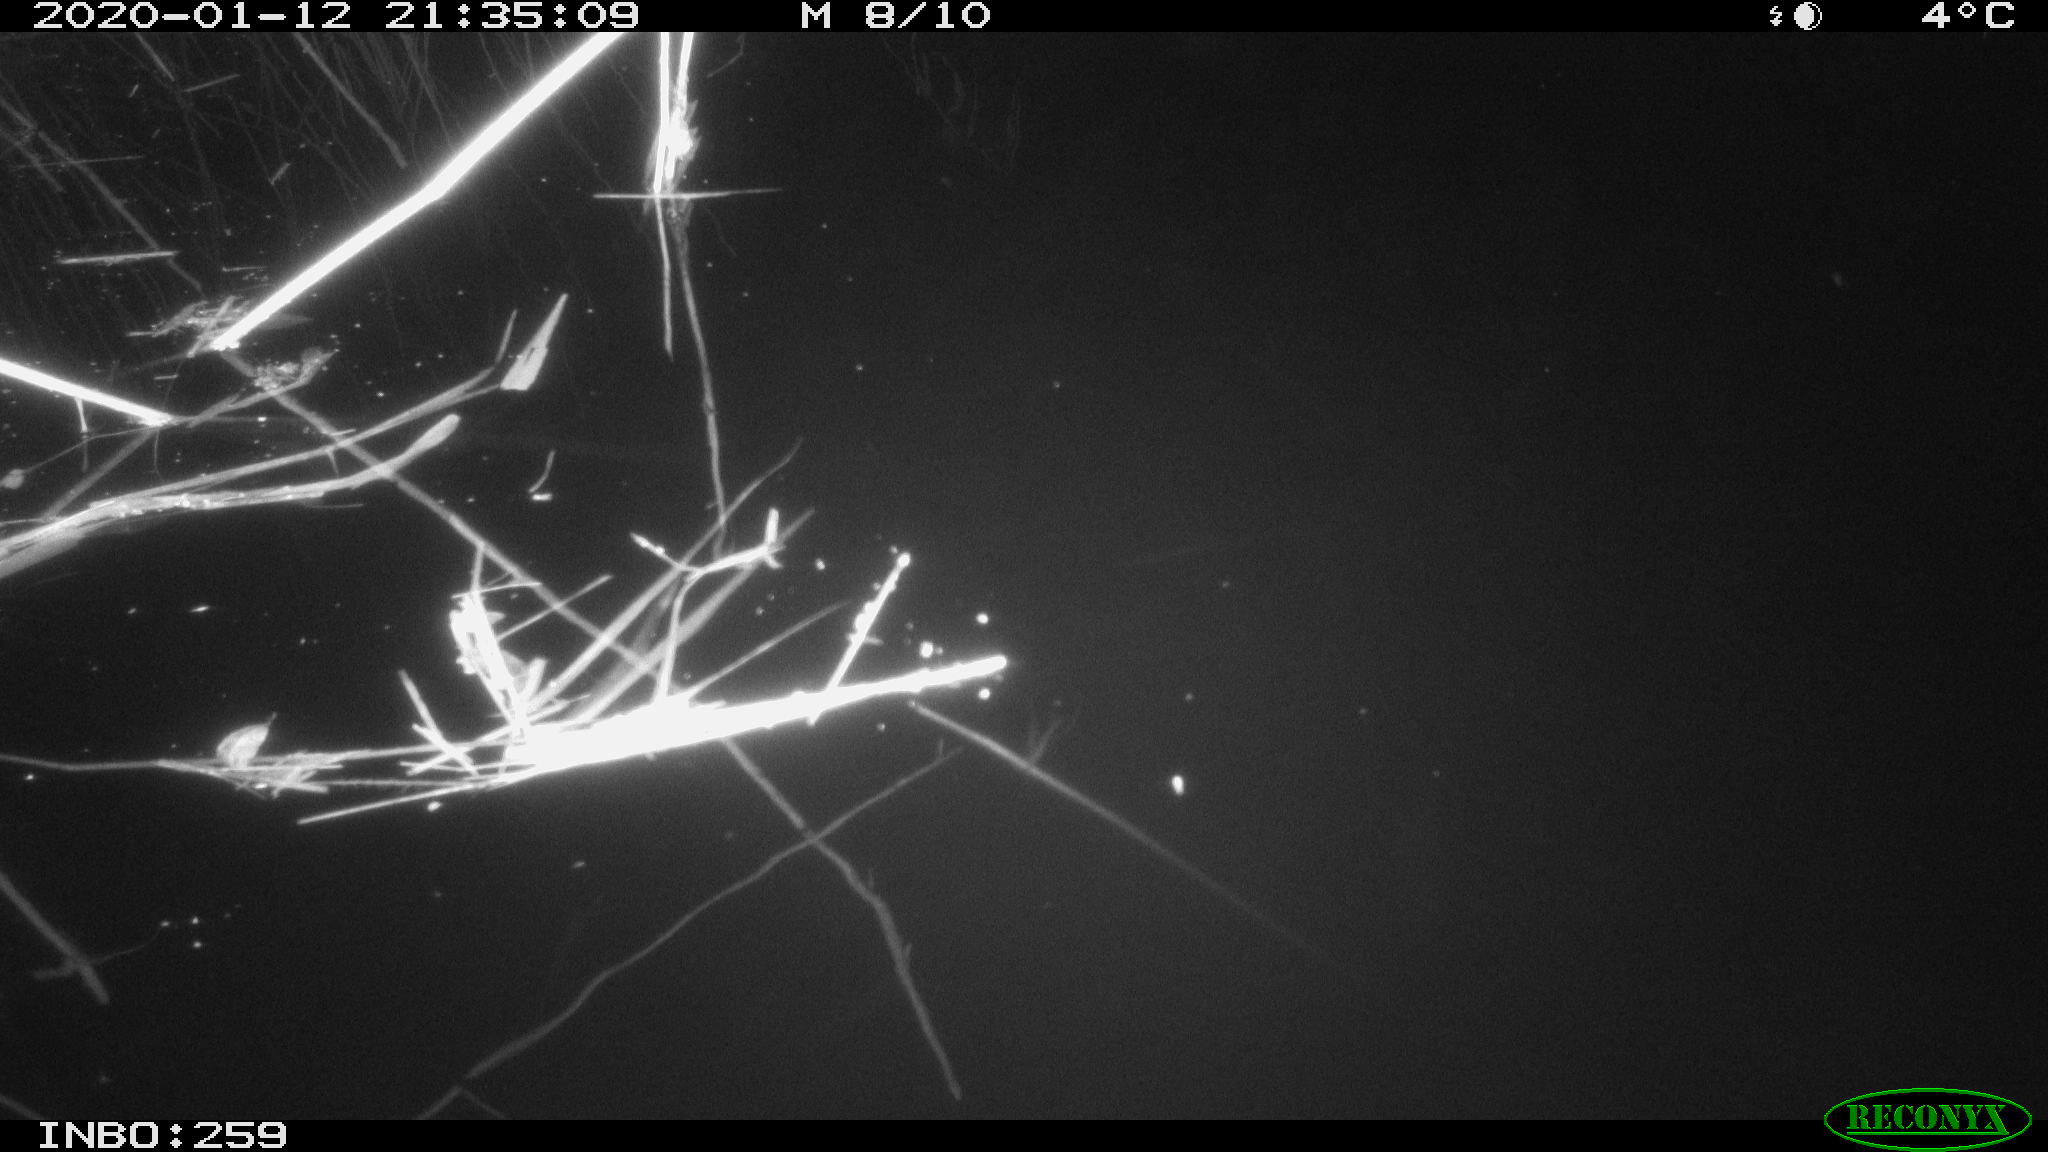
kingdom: Animalia
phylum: Chordata
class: Aves
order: Gruiformes
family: Rallidae
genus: Gallinula
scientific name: Gallinula chloropus
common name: Common moorhen
